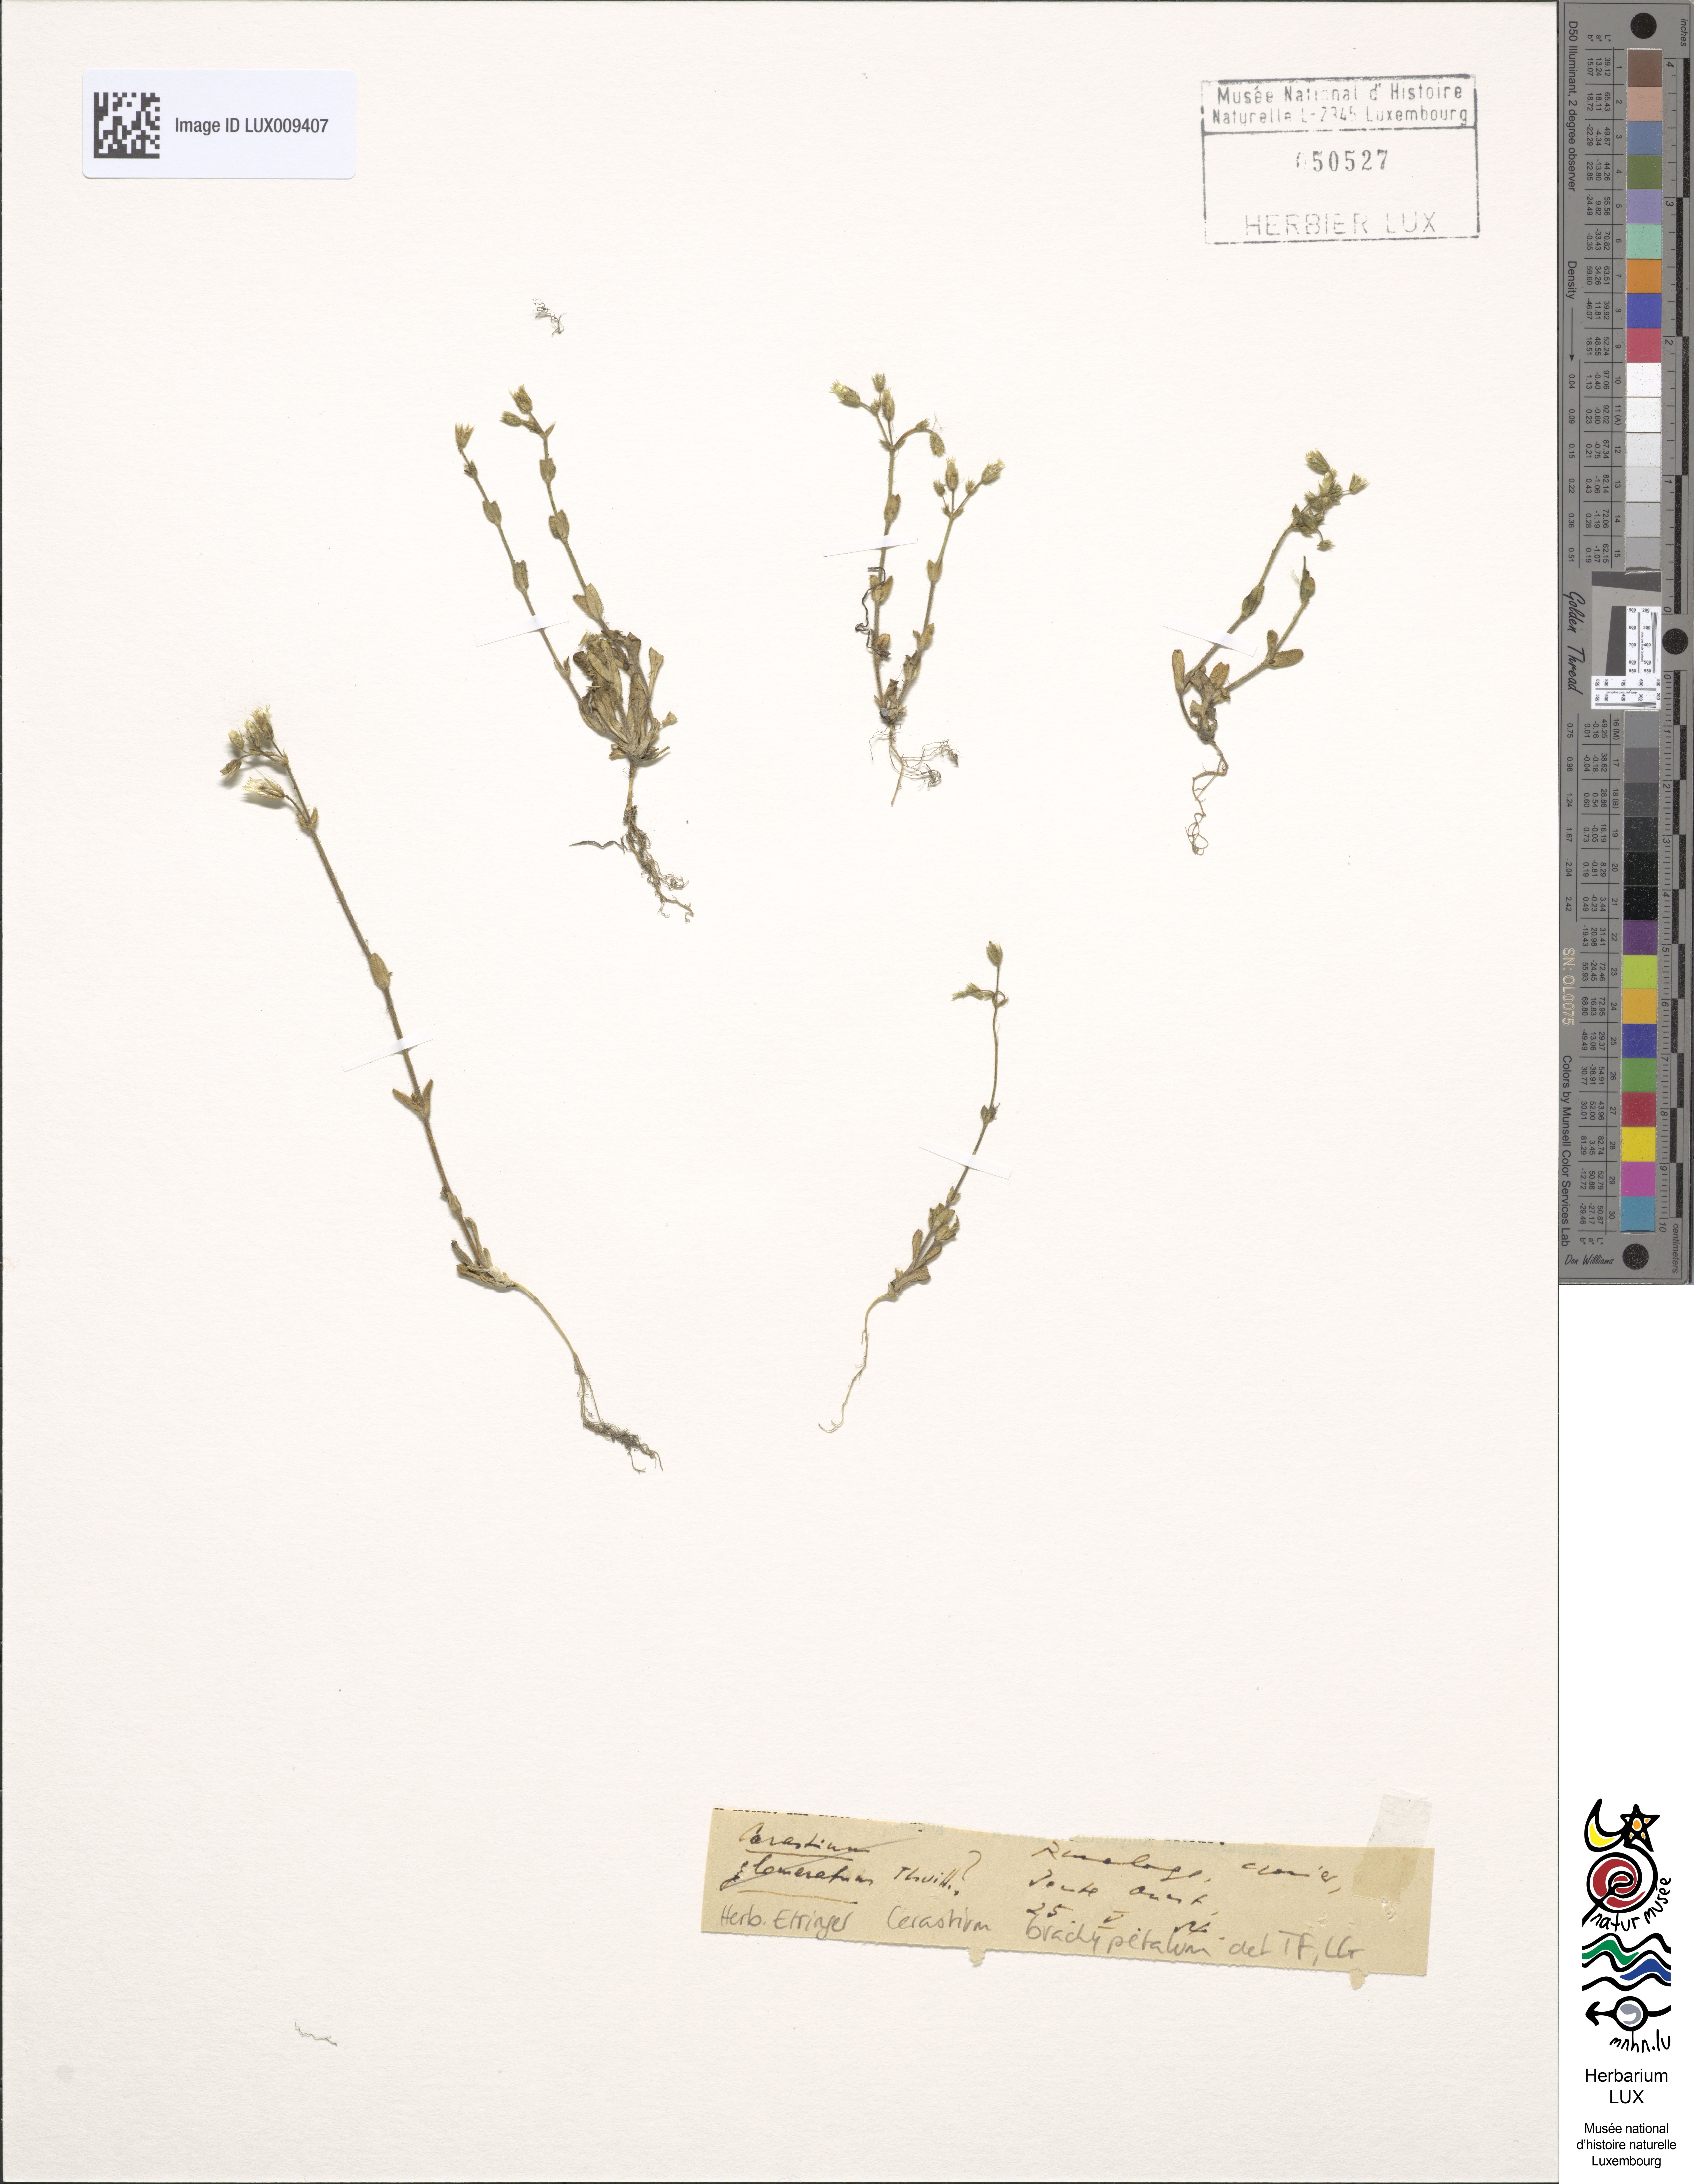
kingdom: Plantae
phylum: Tracheophyta
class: Magnoliopsida
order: Caryophyllales
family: Caryophyllaceae
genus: Cerastium
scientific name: Cerastium brachypetalum
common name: Grey mouse-ear
